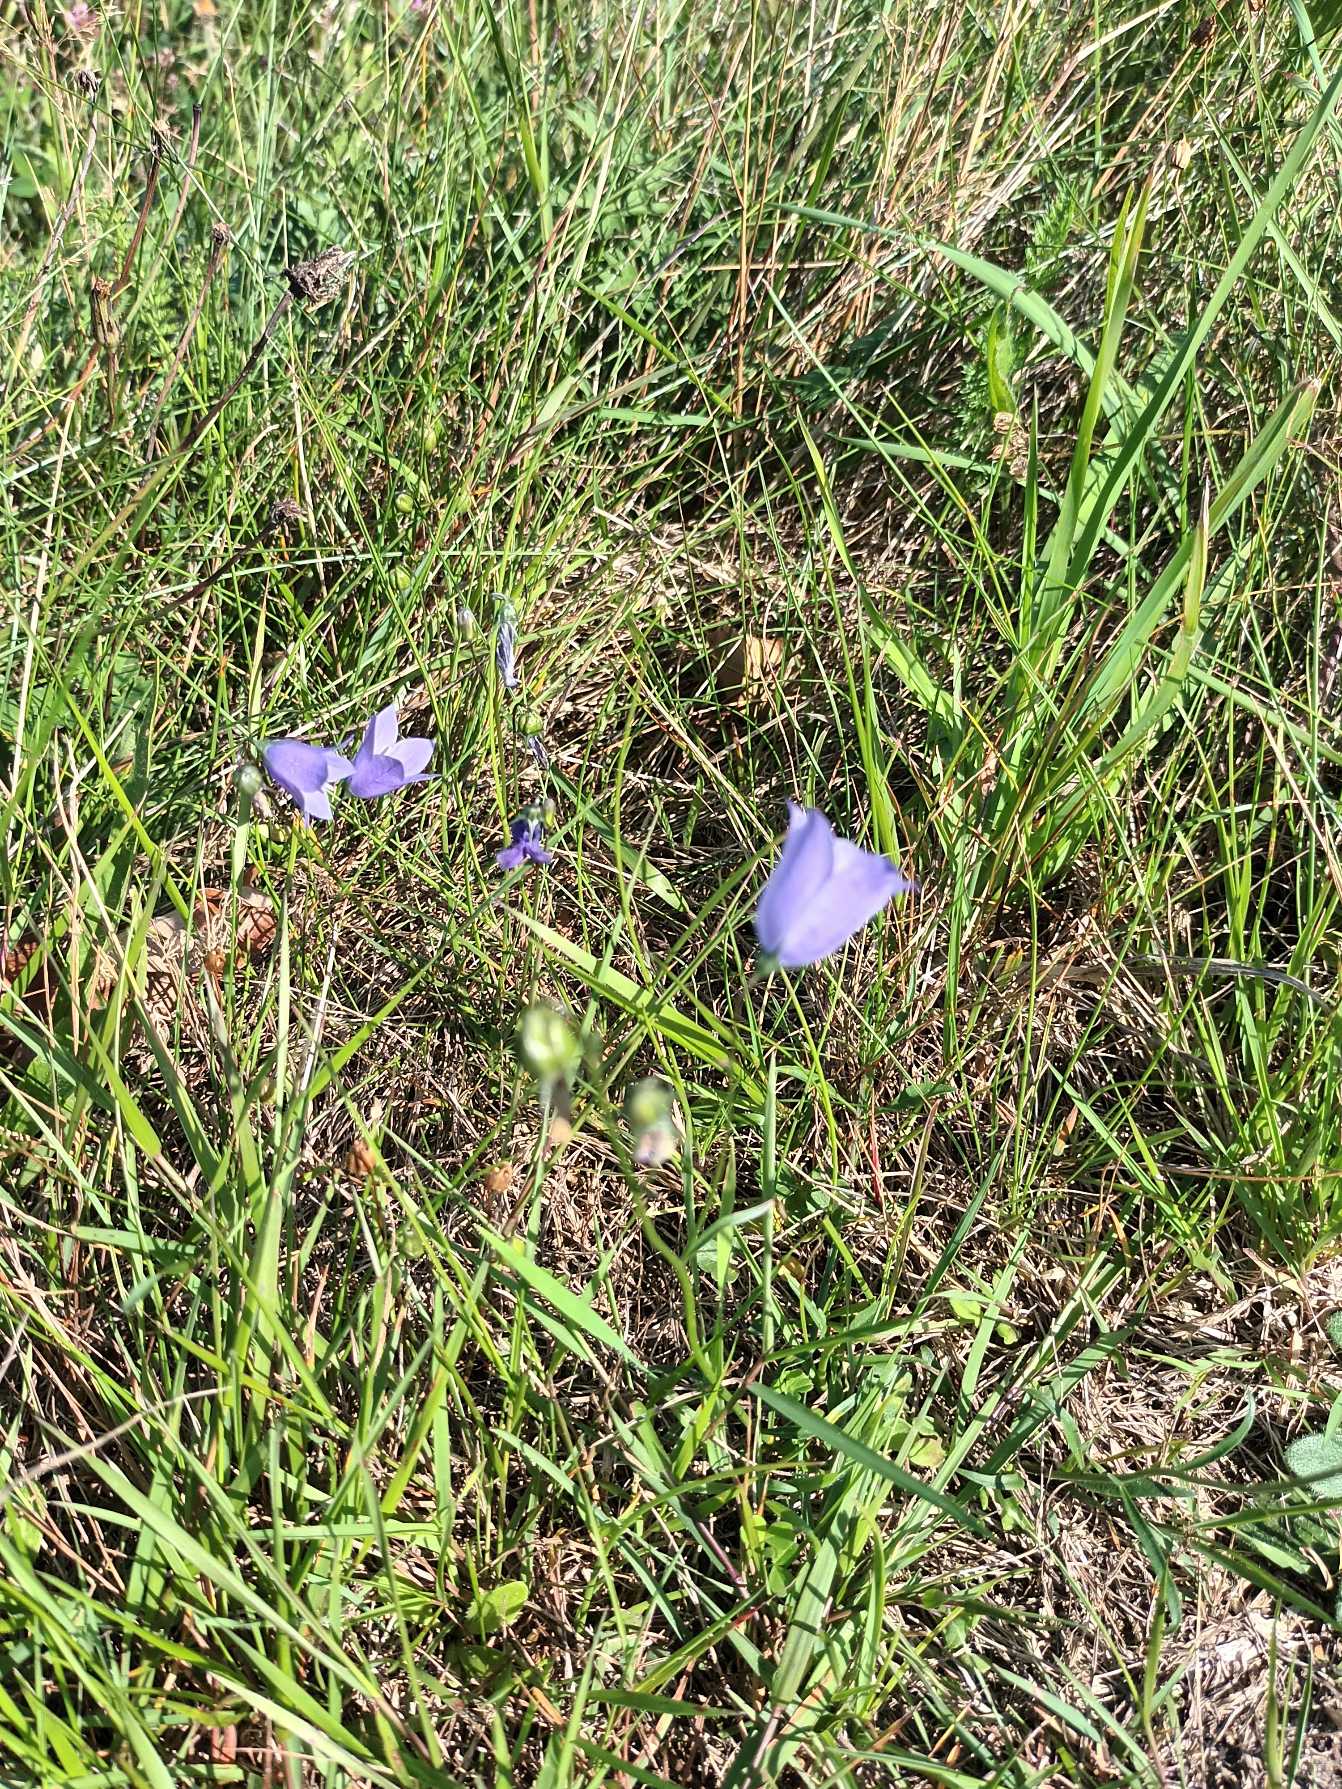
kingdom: Plantae
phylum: Tracheophyta
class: Magnoliopsida
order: Asterales
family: Campanulaceae
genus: Campanula
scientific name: Campanula rotundifolia
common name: Liden klokke
